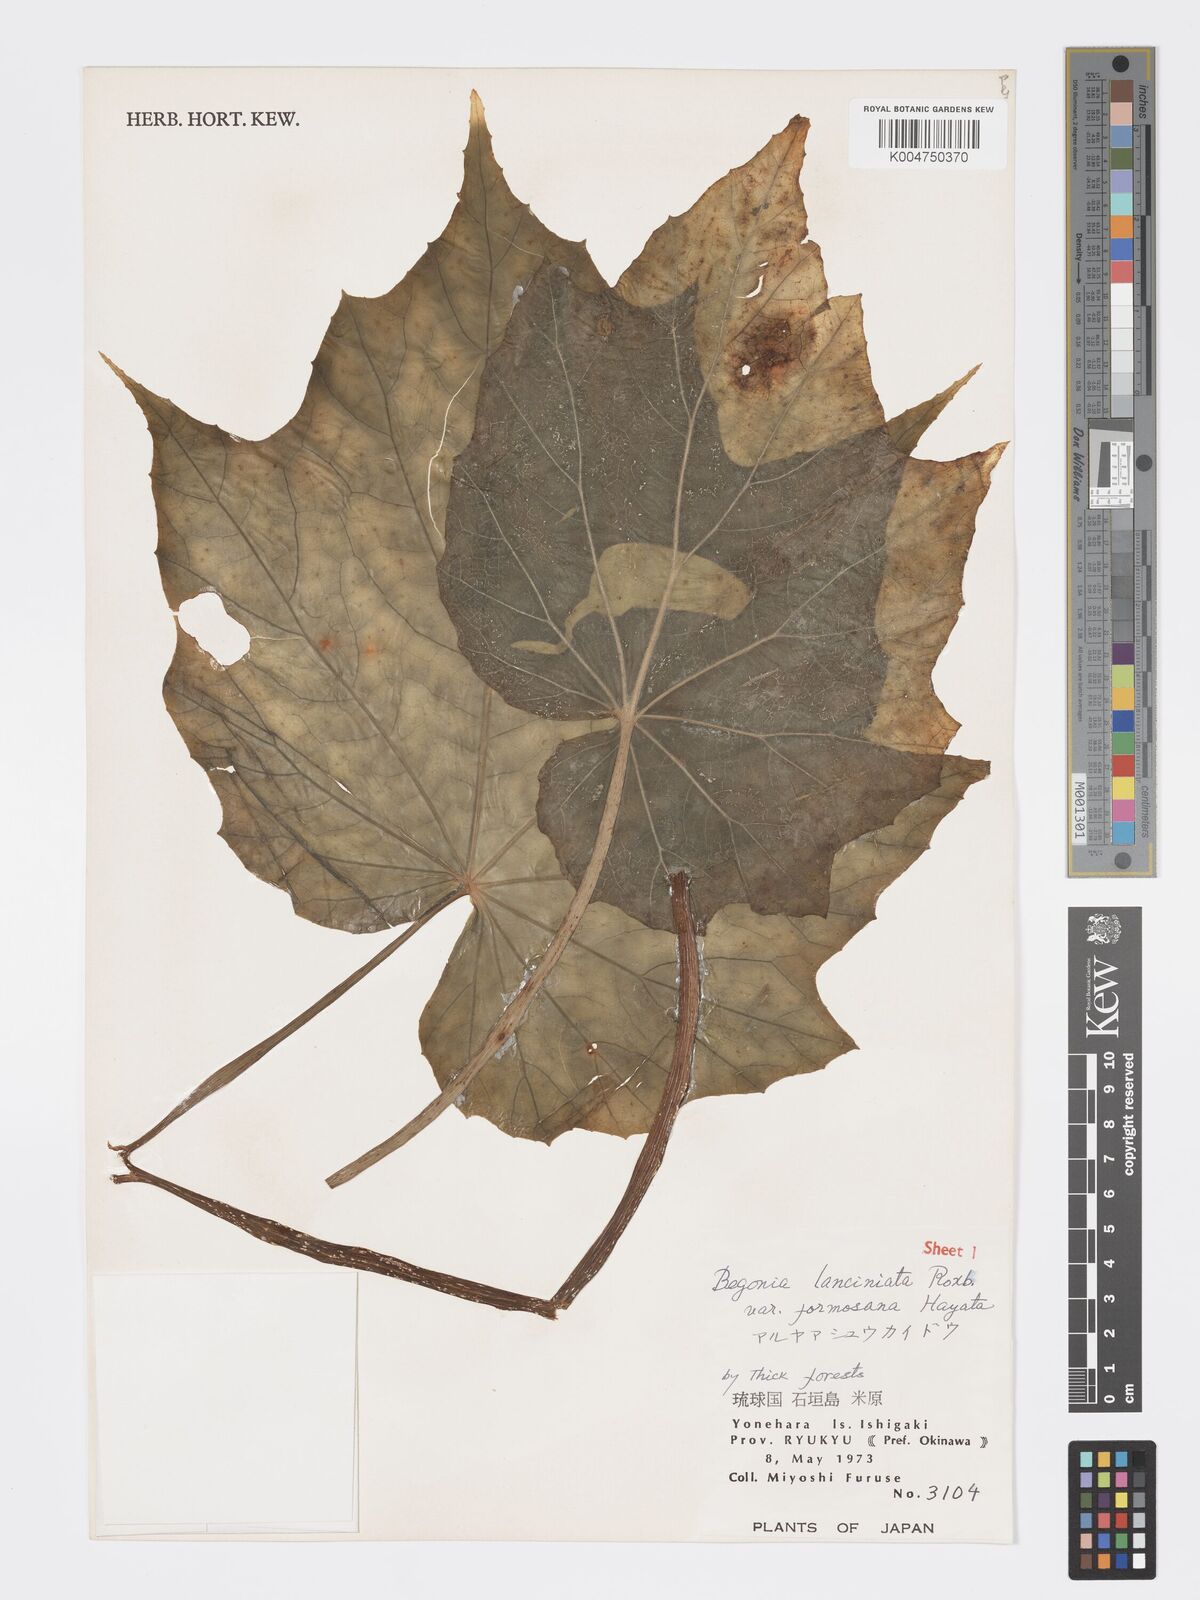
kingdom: Plantae
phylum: Tracheophyta
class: Magnoliopsida
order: Cucurbitales
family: Begoniaceae
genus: Begonia
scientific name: Begonia palmata
